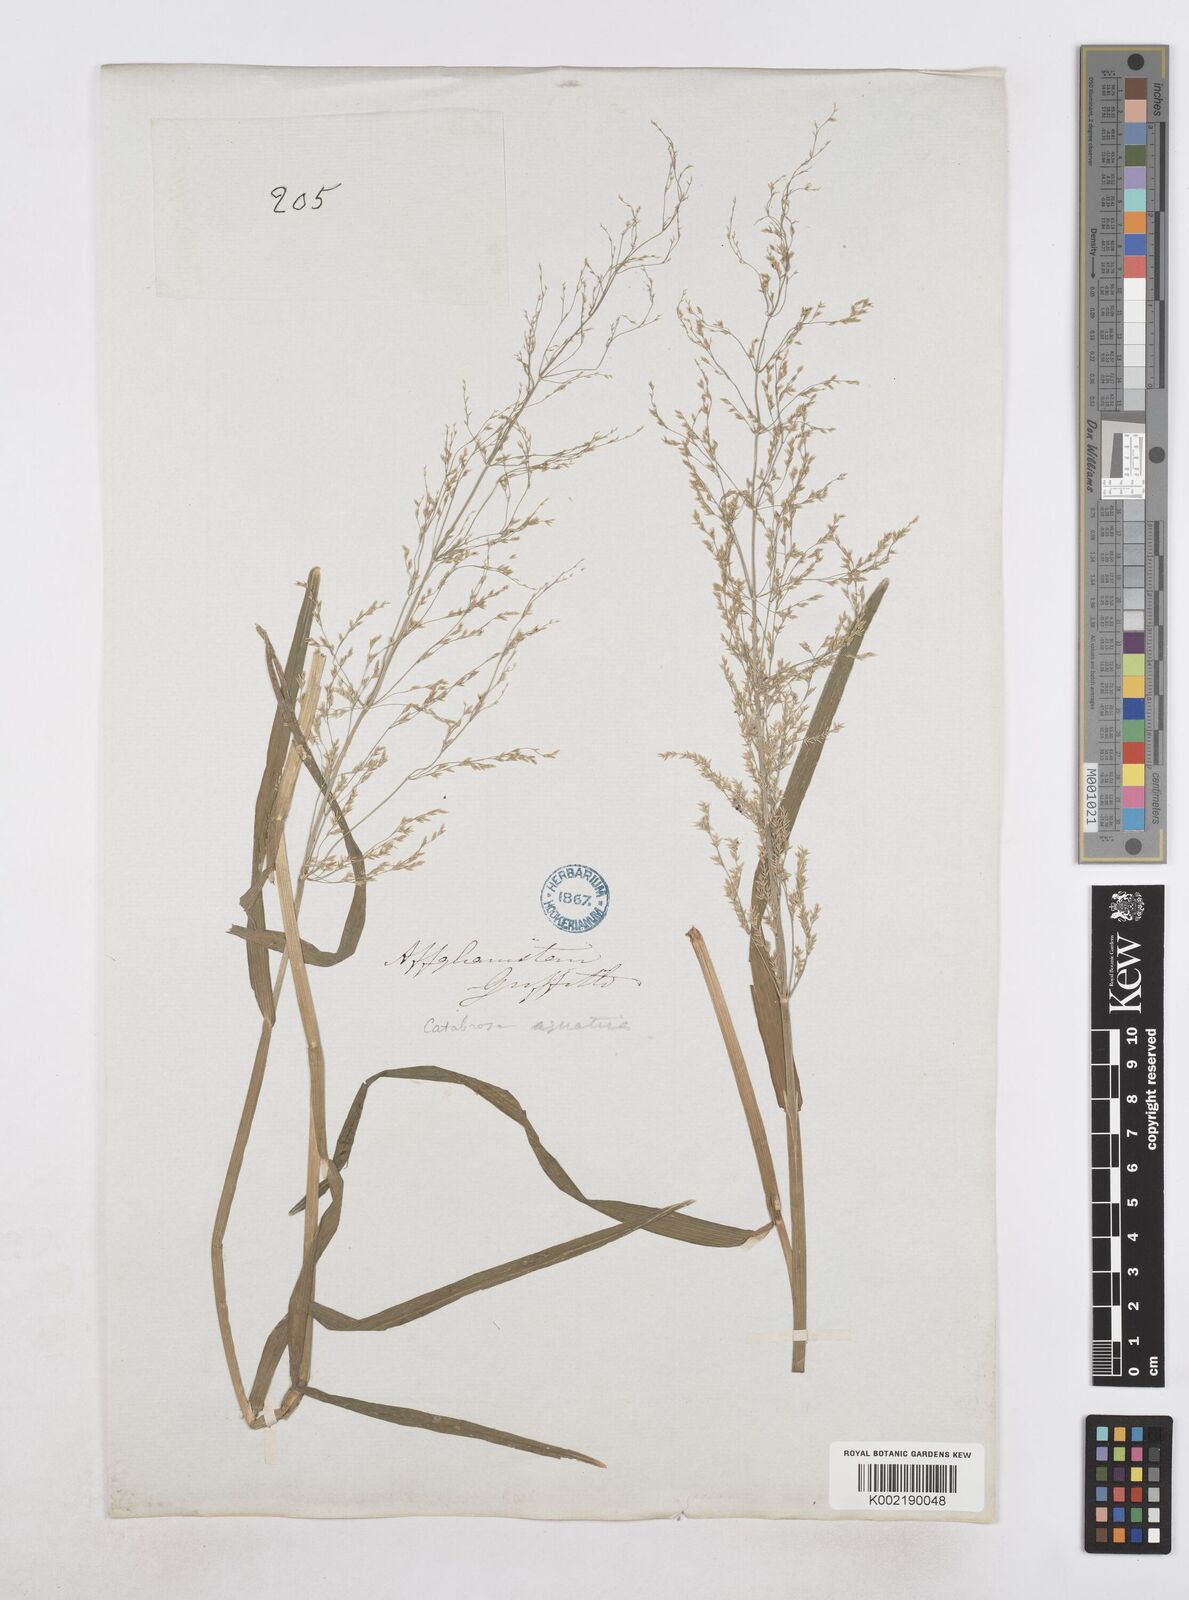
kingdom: Plantae
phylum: Tracheophyta
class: Liliopsida
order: Poales
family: Poaceae
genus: Catabrosa
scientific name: Catabrosa aquatica
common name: Whorl-grass
